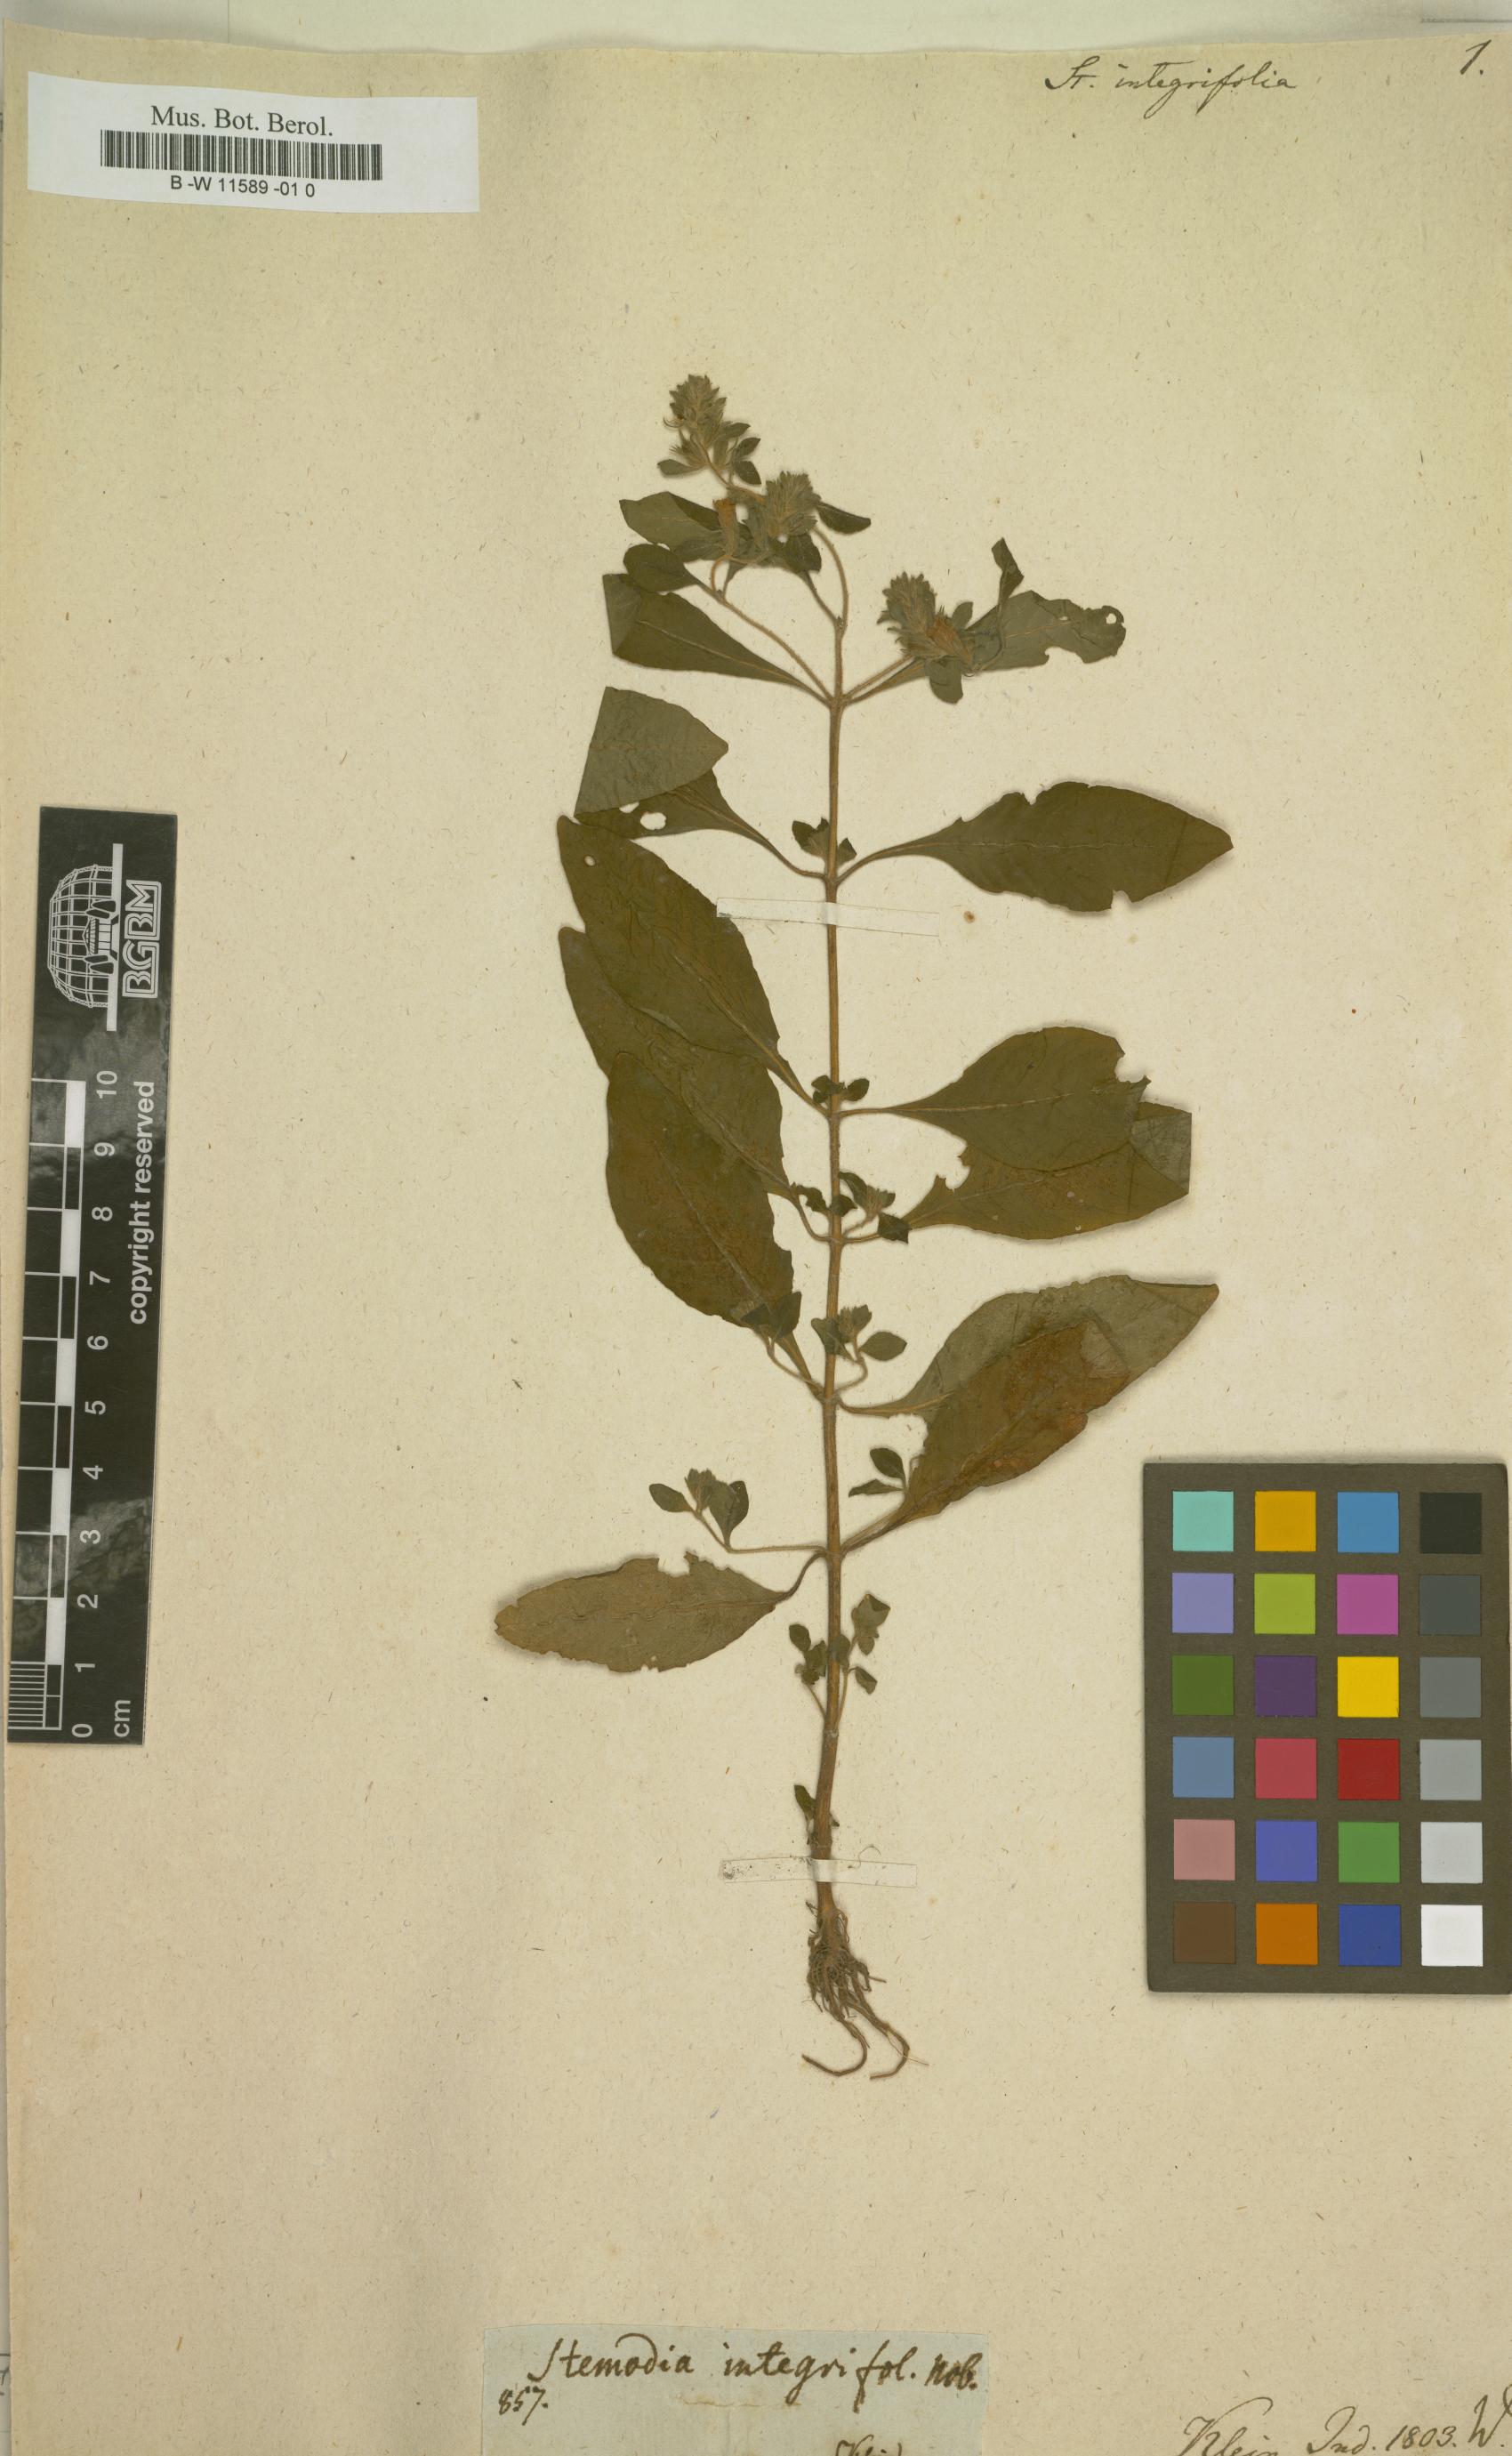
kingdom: Plantae
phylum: Tracheophyta
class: Magnoliopsida
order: Lamiales
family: Plantaginaceae
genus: Stemodia
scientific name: Stemodia
